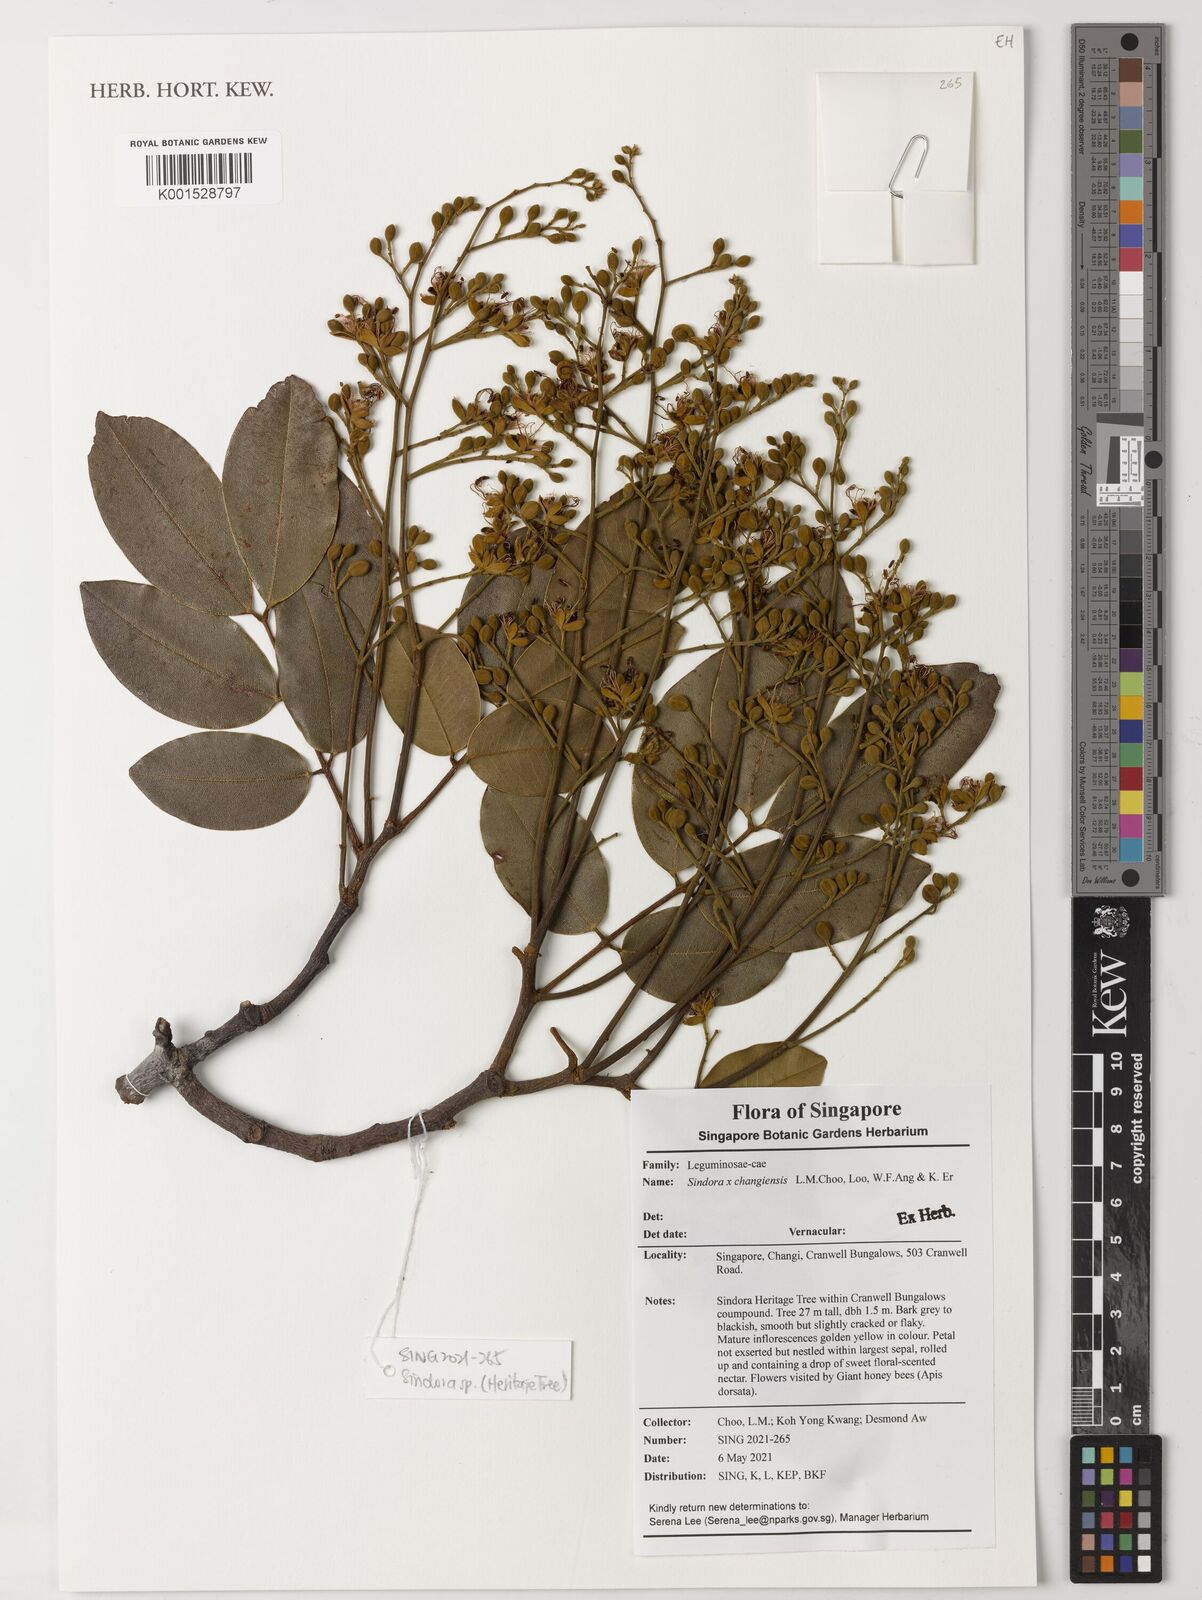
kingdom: Plantae
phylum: Tracheophyta
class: Magnoliopsida
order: Fabales
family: Fabaceae
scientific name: Fabaceae
